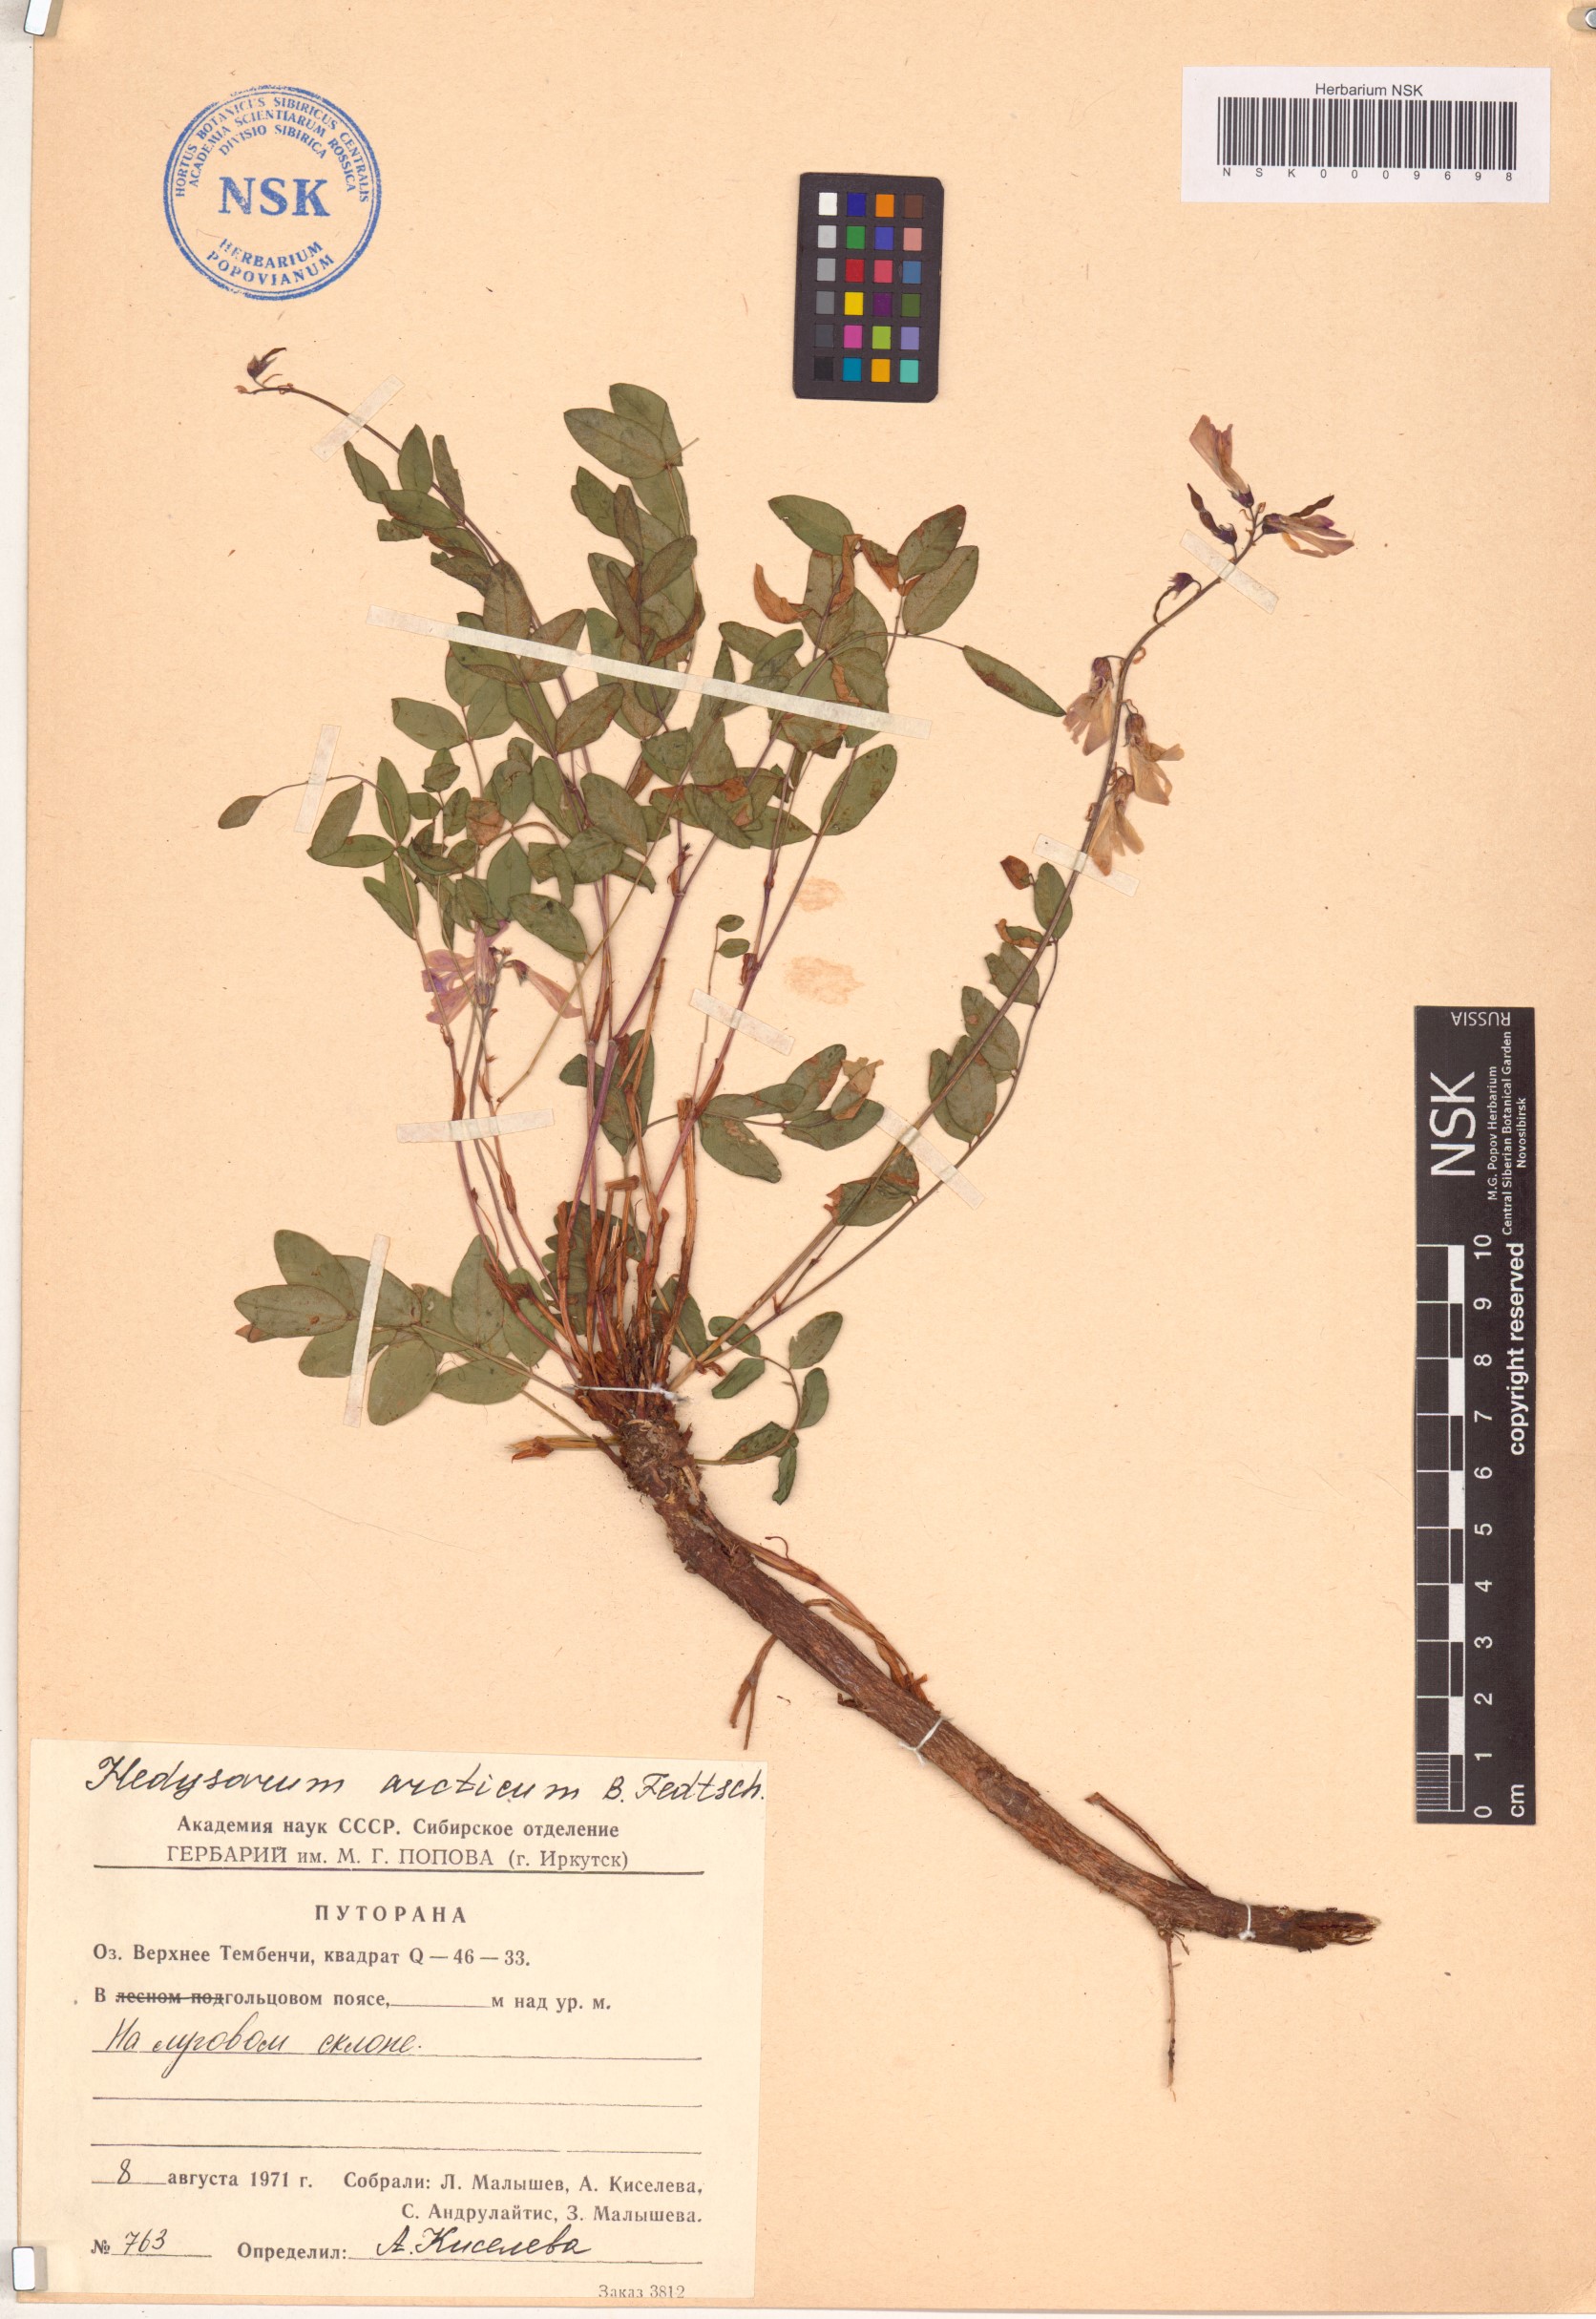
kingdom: Plantae
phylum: Tracheophyta
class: Magnoliopsida
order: Fabales
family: Fabaceae
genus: Hedysarum
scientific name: Hedysarum hedysaroides
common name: Alpine french-honeysuckle
